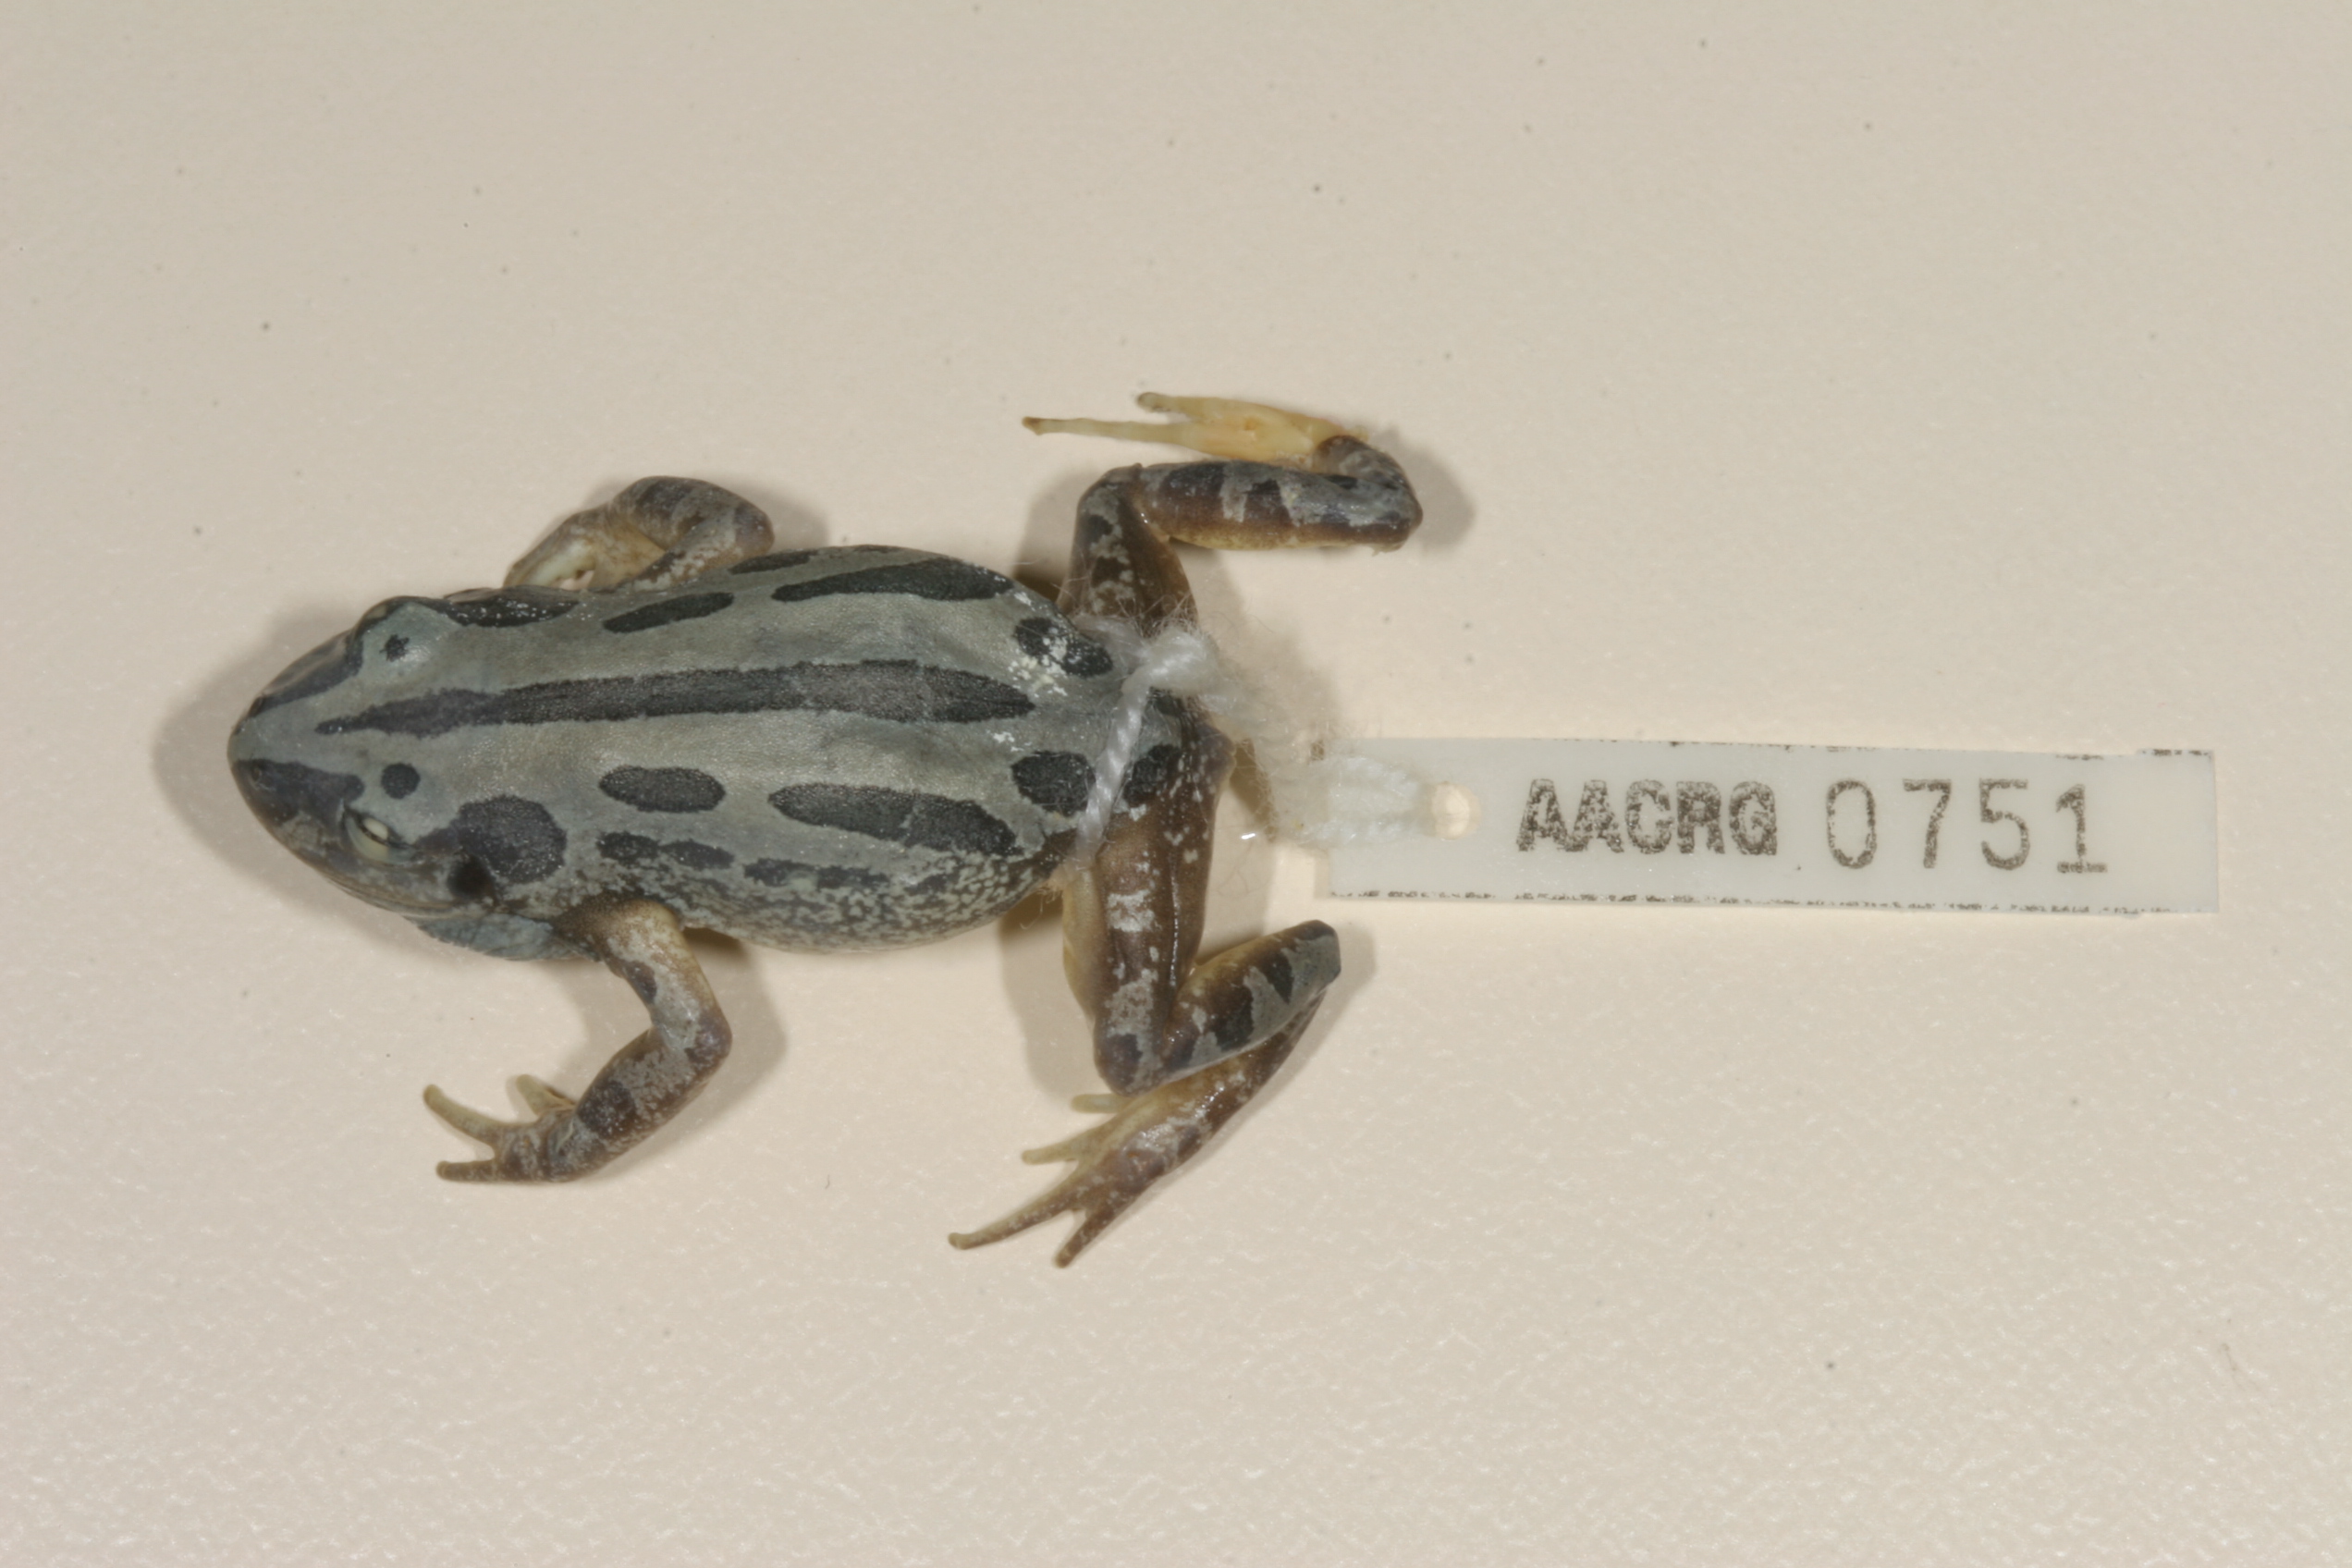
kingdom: Animalia
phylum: Chordata
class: Amphibia
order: Anura
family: Hyperoliidae
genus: Kassina
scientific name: Kassina senegalensis
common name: Senegal land frog
